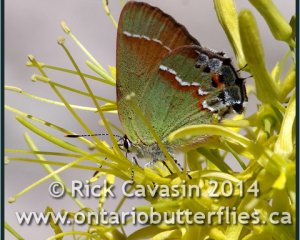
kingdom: Animalia
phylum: Arthropoda
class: Insecta
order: Lepidoptera
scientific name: Lepidoptera
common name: Butterflies
